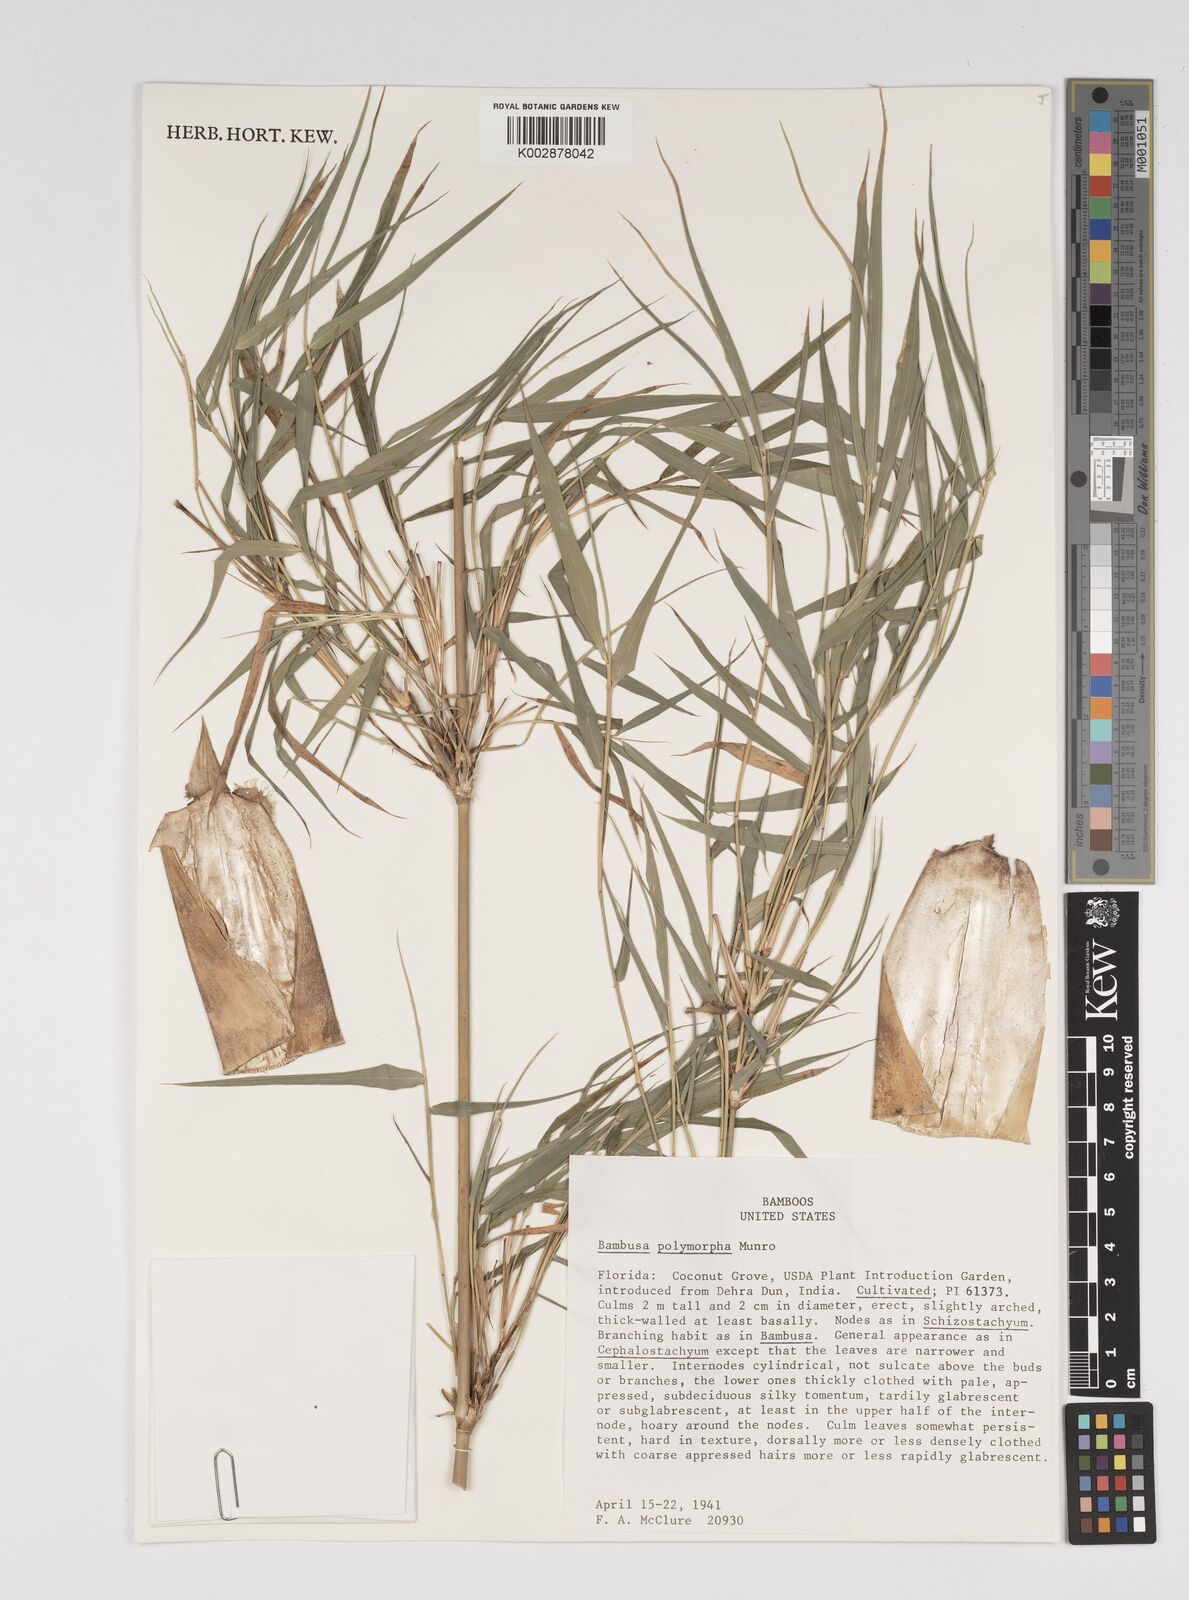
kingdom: Plantae
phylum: Tracheophyta
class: Liliopsida
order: Poales
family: Poaceae
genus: Bambusa
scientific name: Bambusa polymorpha
